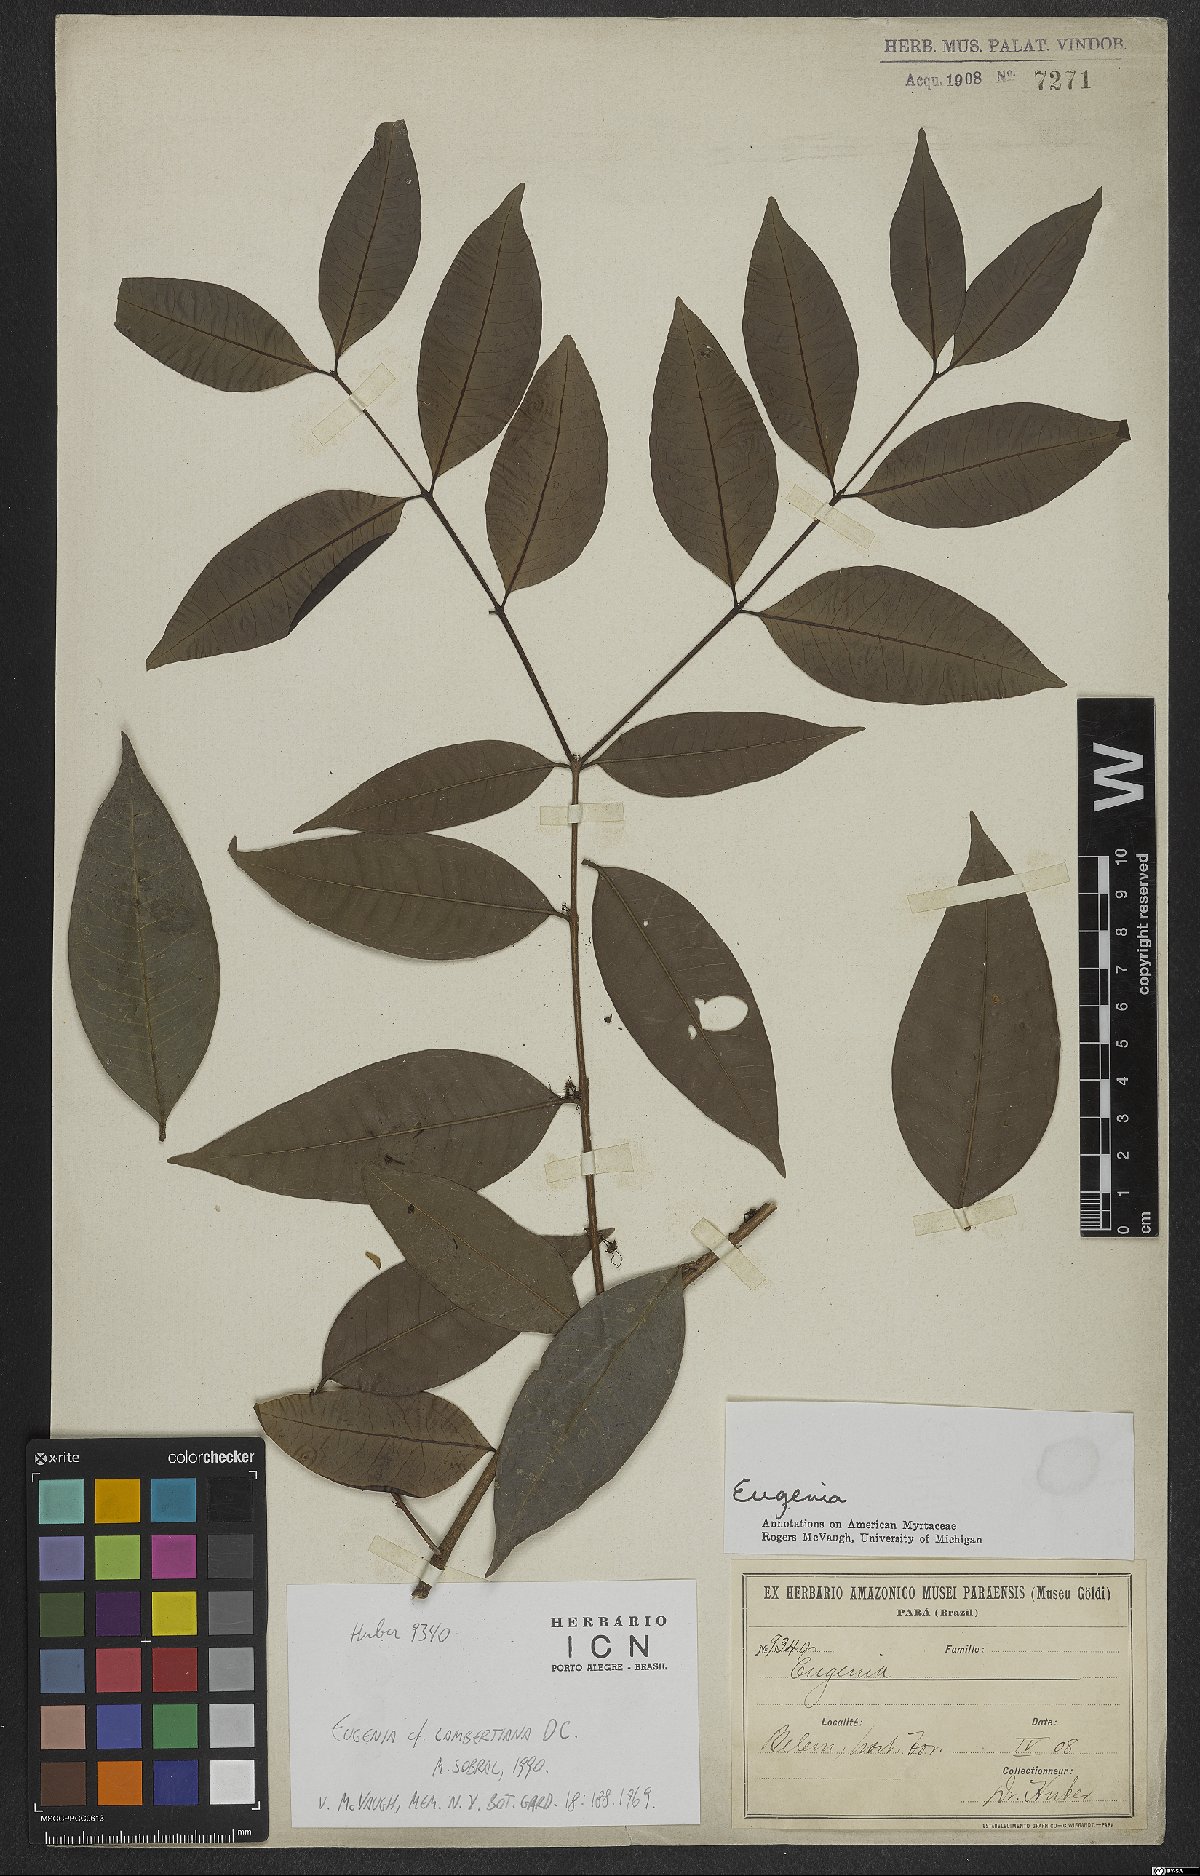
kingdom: Plantae
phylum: Tracheophyta
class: Magnoliopsida
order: Myrtales
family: Myrtaceae
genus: Eugenia
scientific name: Eugenia lambertiana
